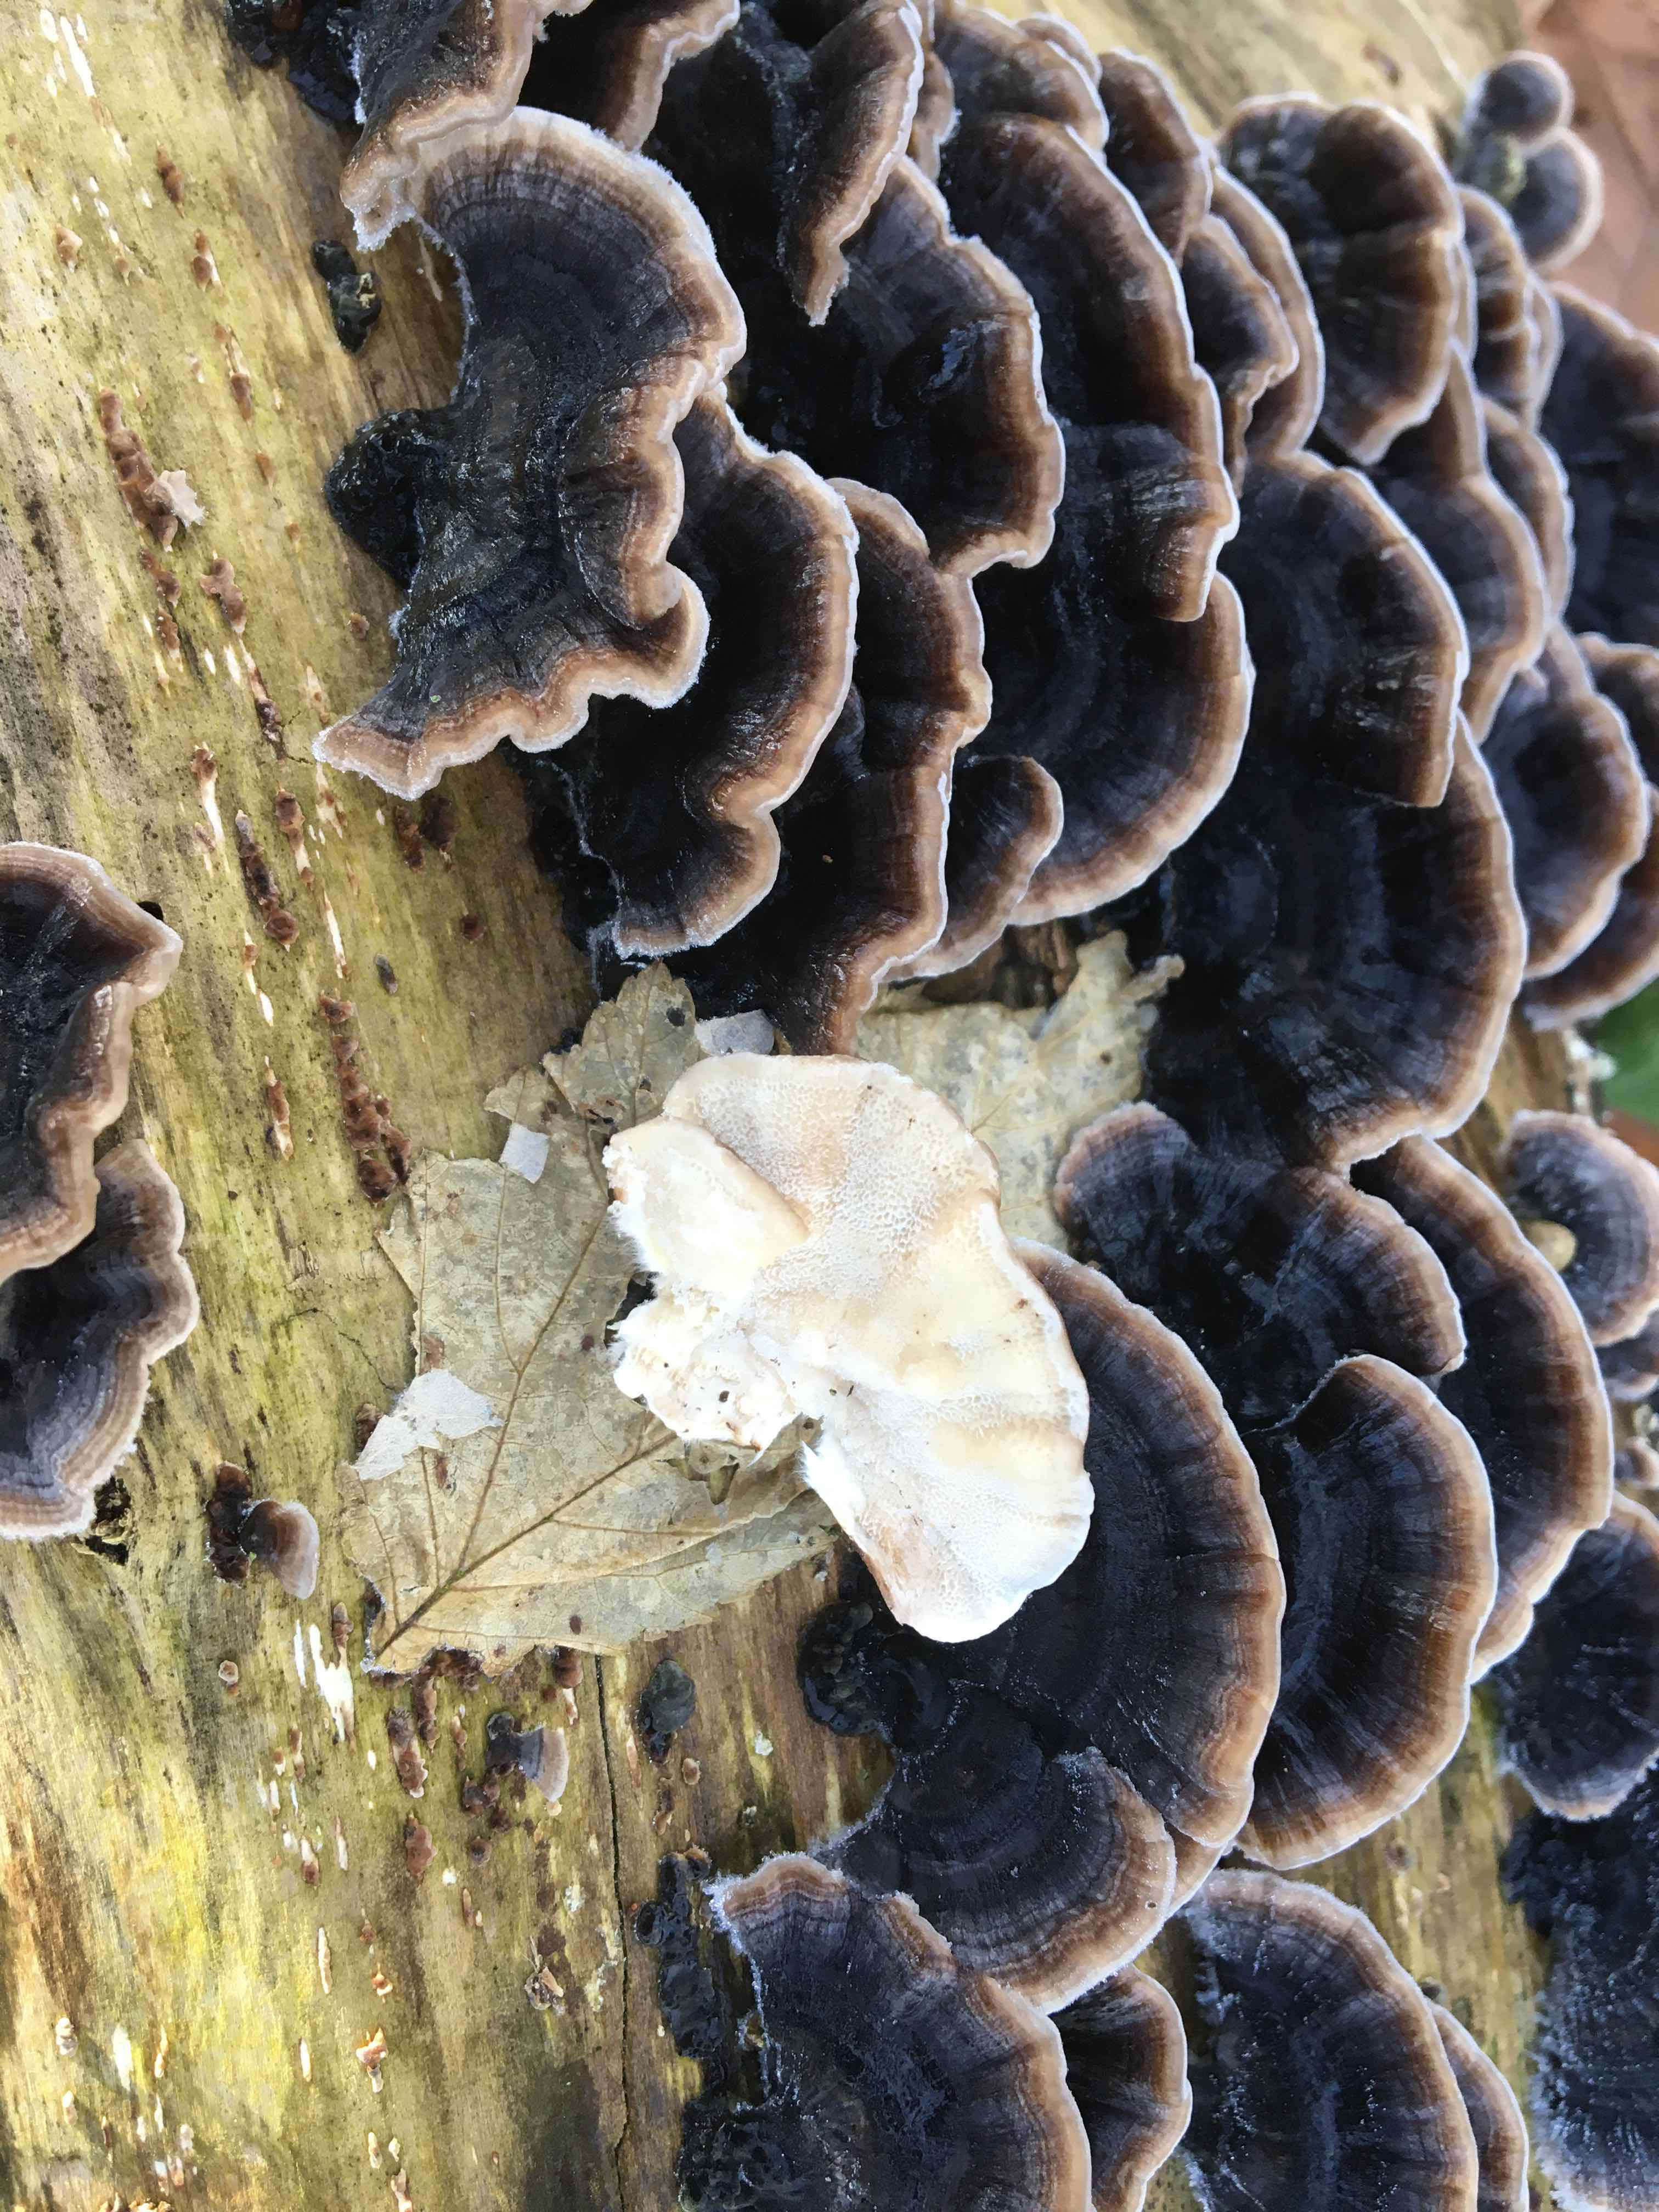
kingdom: Fungi
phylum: Basidiomycota
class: Agaricomycetes
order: Polyporales
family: Polyporaceae
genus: Trametes
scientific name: Trametes versicolor
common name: broget læderporesvamp
